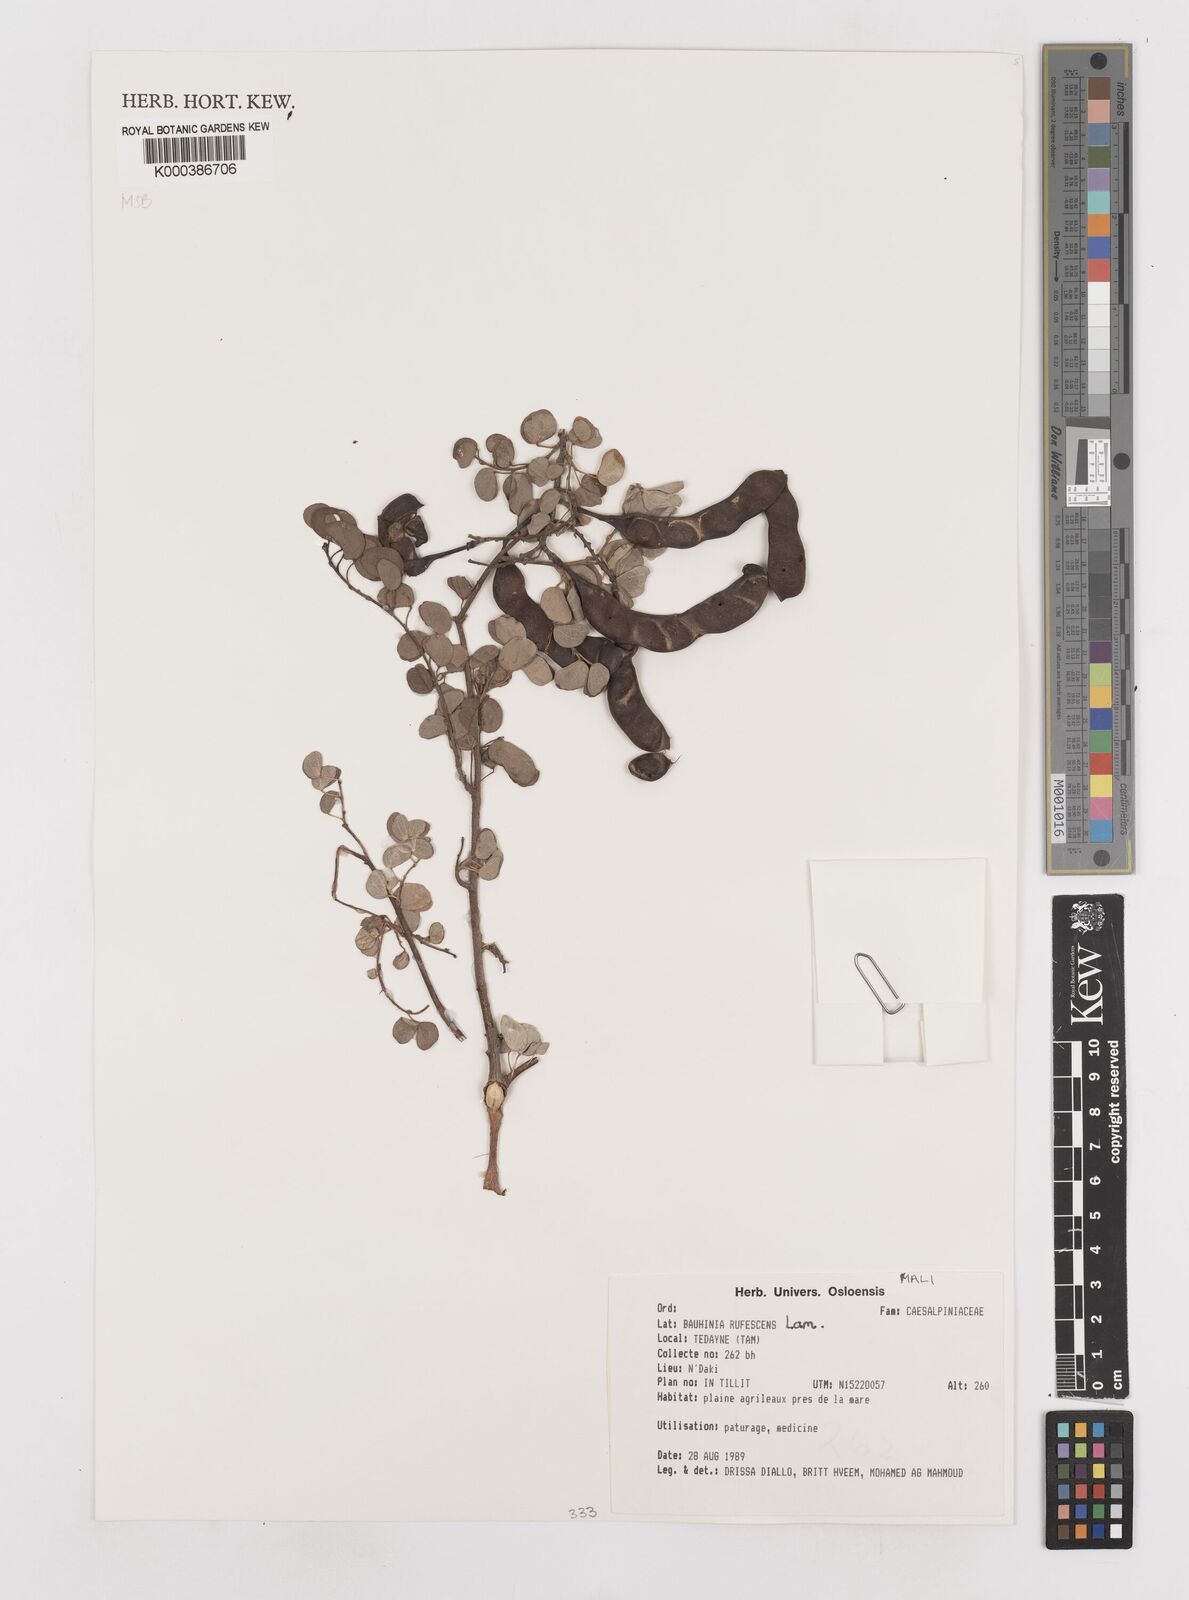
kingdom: Plantae
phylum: Tracheophyta
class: Magnoliopsida
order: Fabales
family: Fabaceae
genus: Bauhinia
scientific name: Bauhinia rufescens
